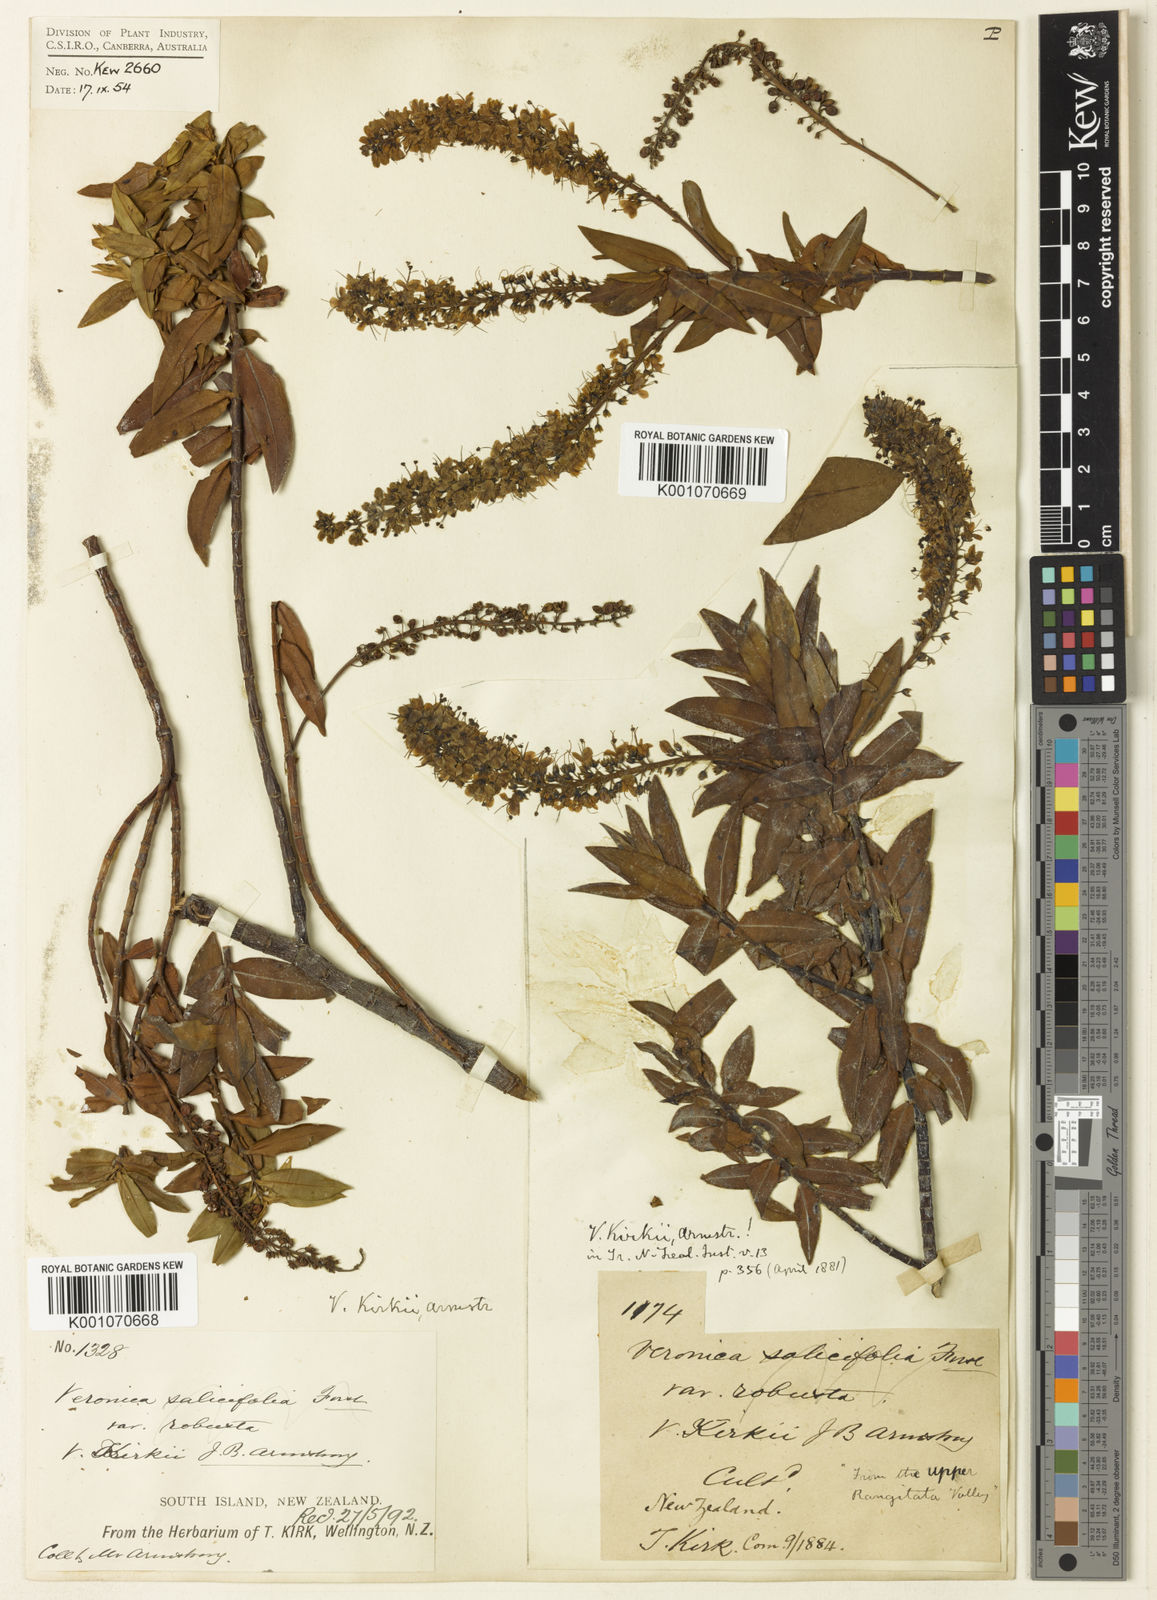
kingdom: Plantae
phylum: Tracheophyta
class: Magnoliopsida
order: Lamiales
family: Plantaginaceae
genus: Veronica
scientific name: Veronica kirkii
